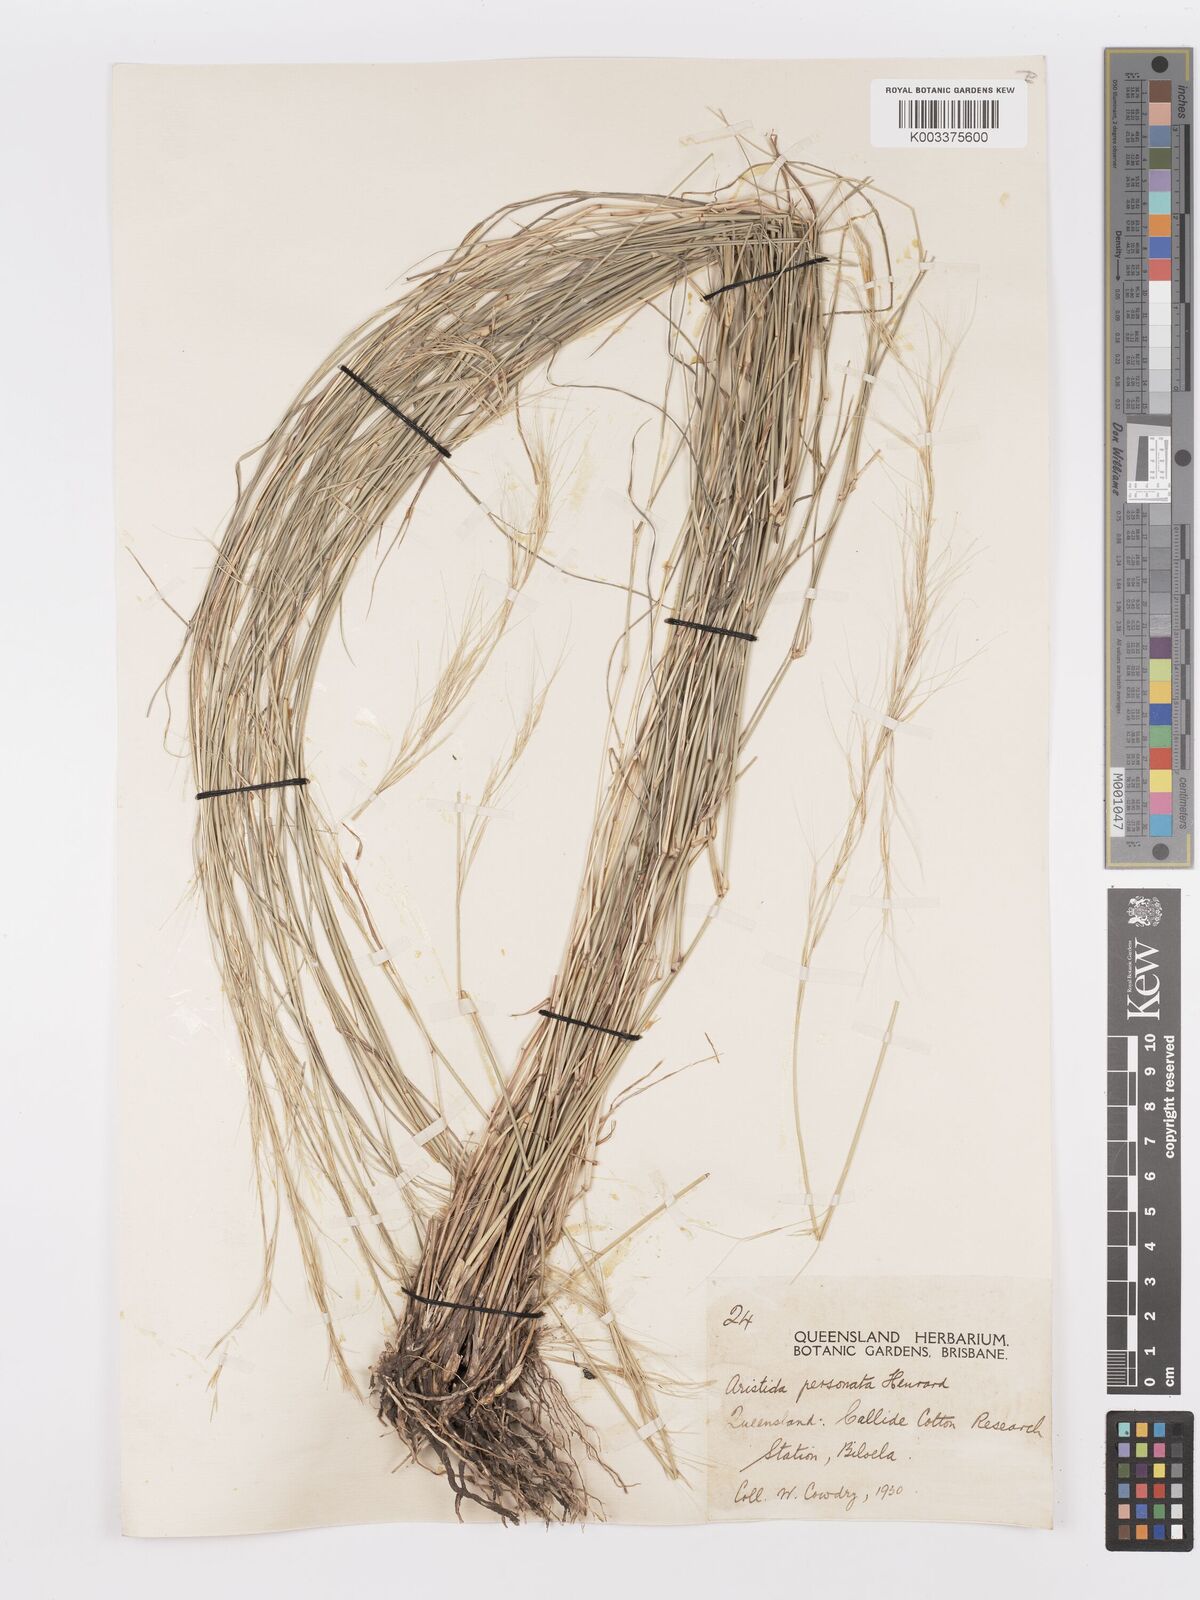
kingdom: Plantae
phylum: Tracheophyta
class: Liliopsida
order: Poales
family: Poaceae
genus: Aristida
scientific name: Aristida personata
